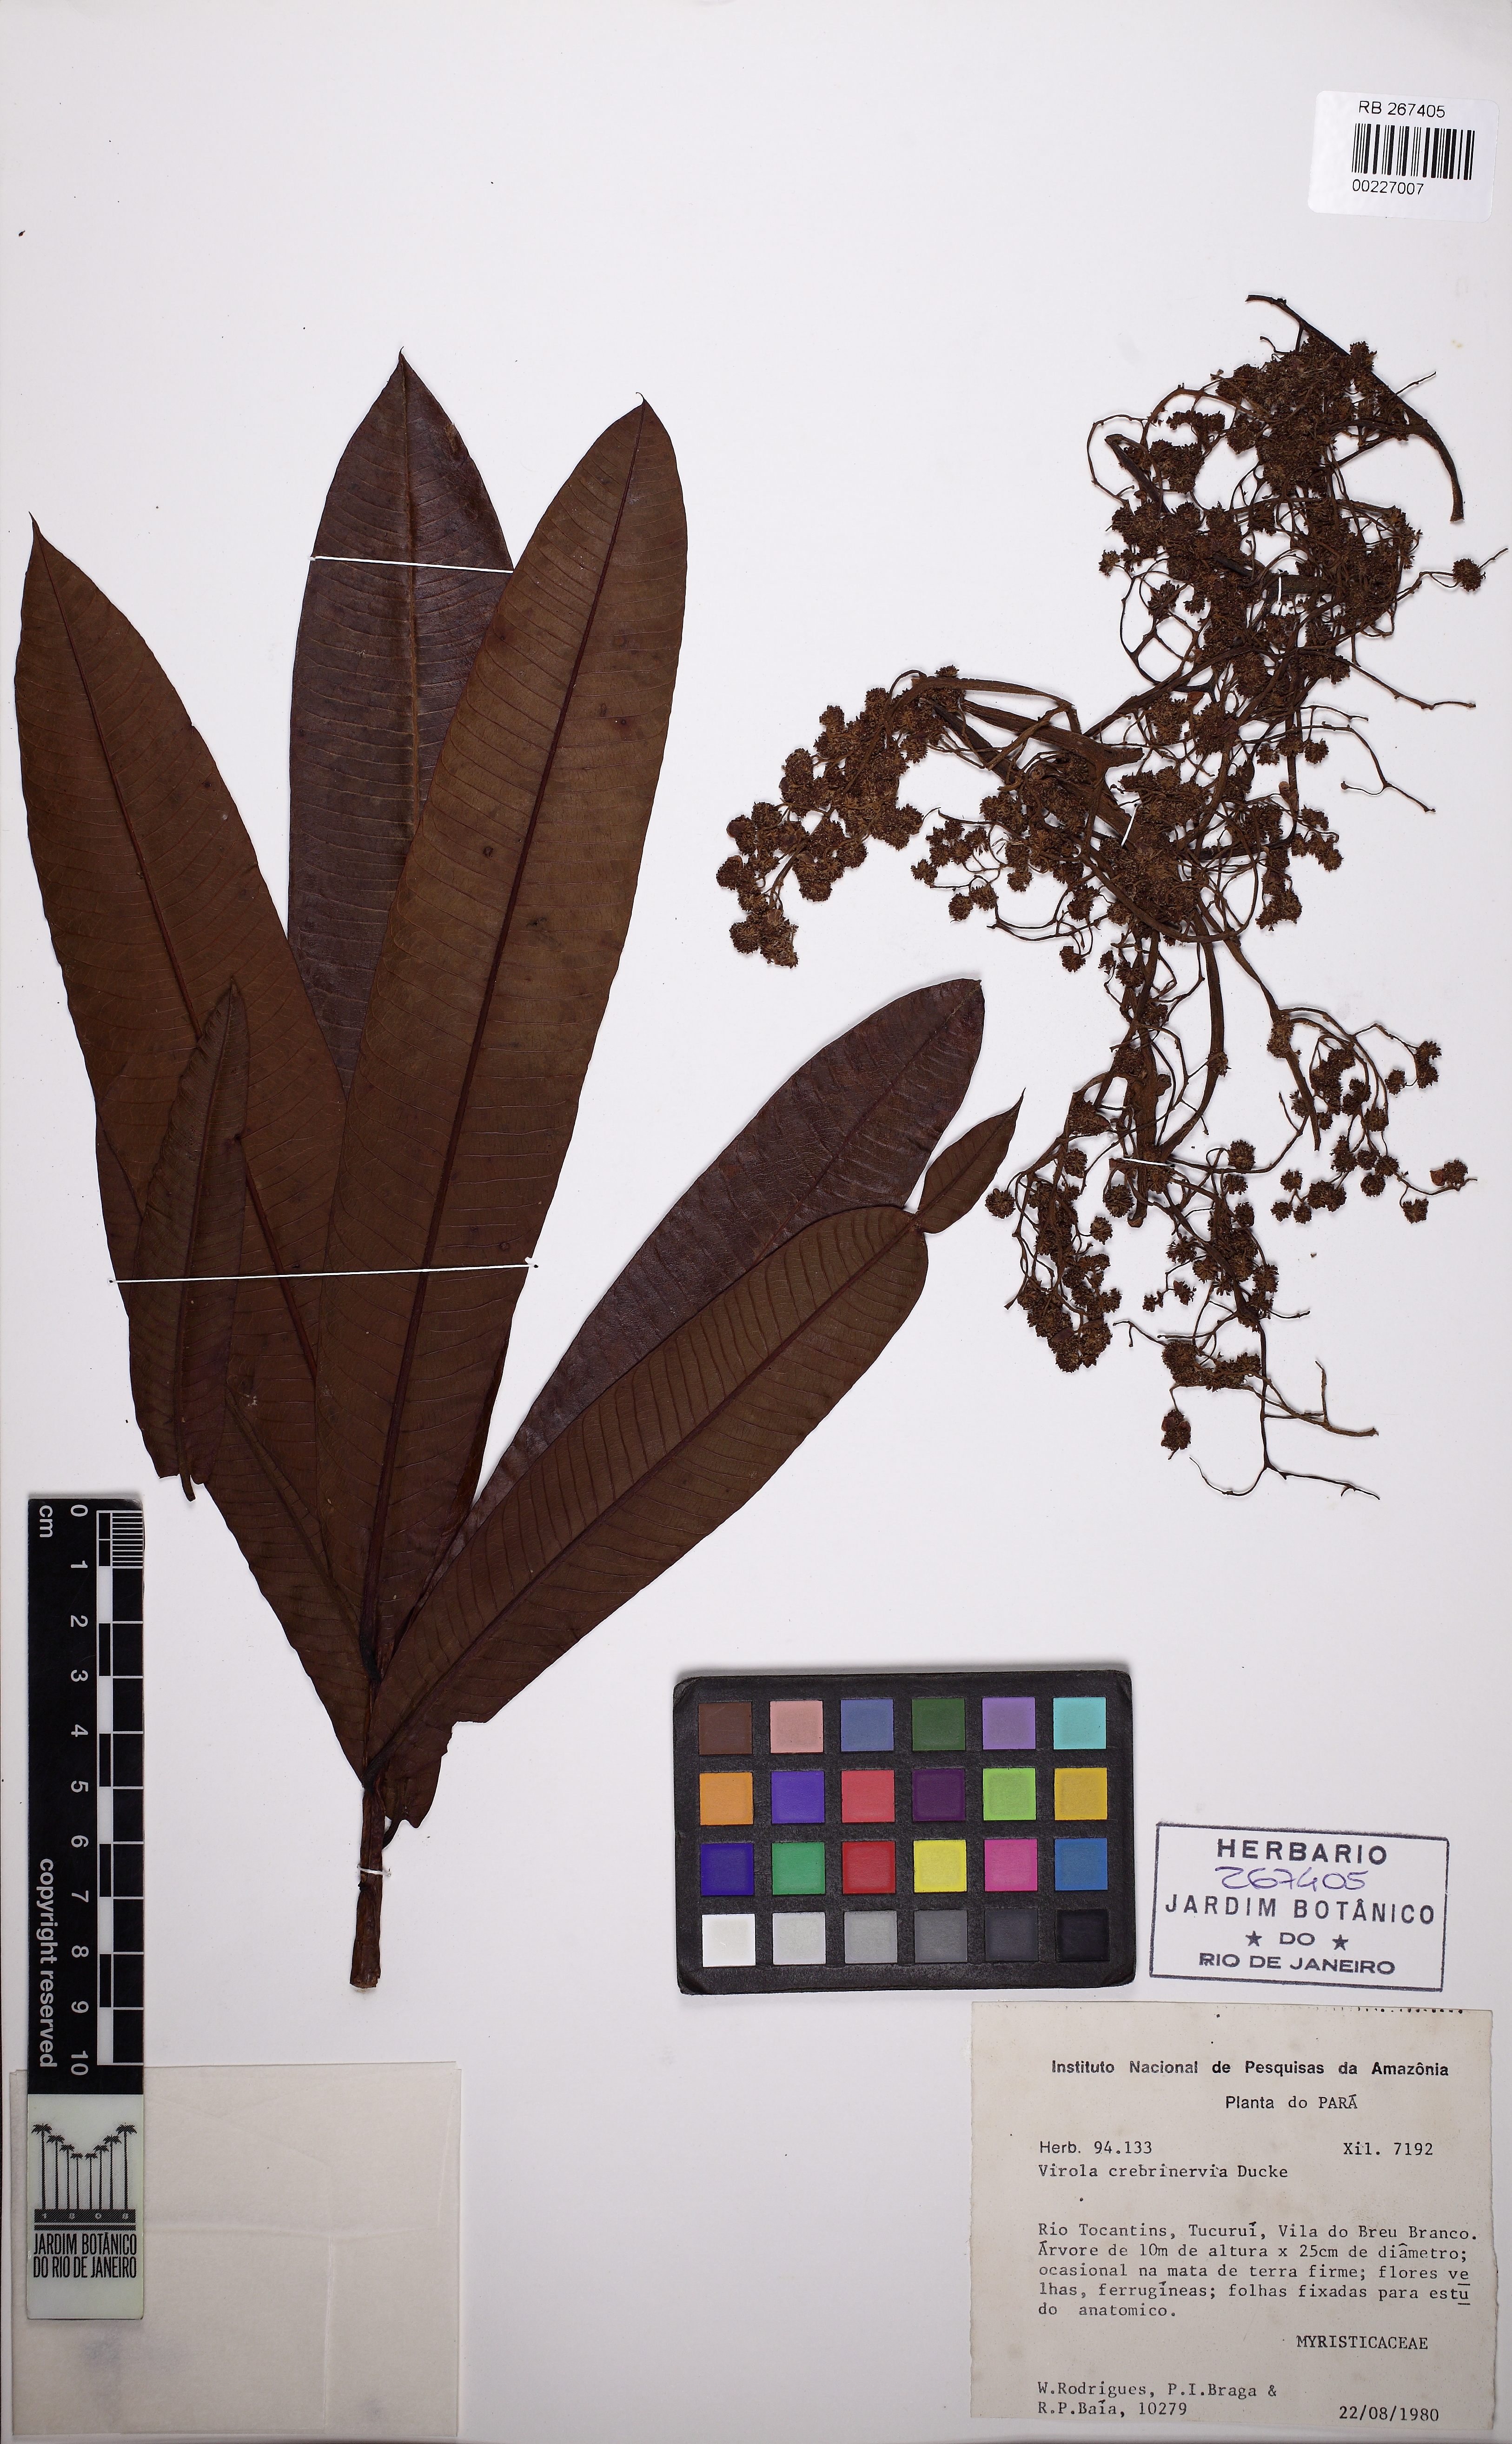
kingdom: Plantae
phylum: Tracheophyta
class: Magnoliopsida
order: Magnoliales
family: Myristicaceae
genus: Virola
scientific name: Virola crebrinervia
